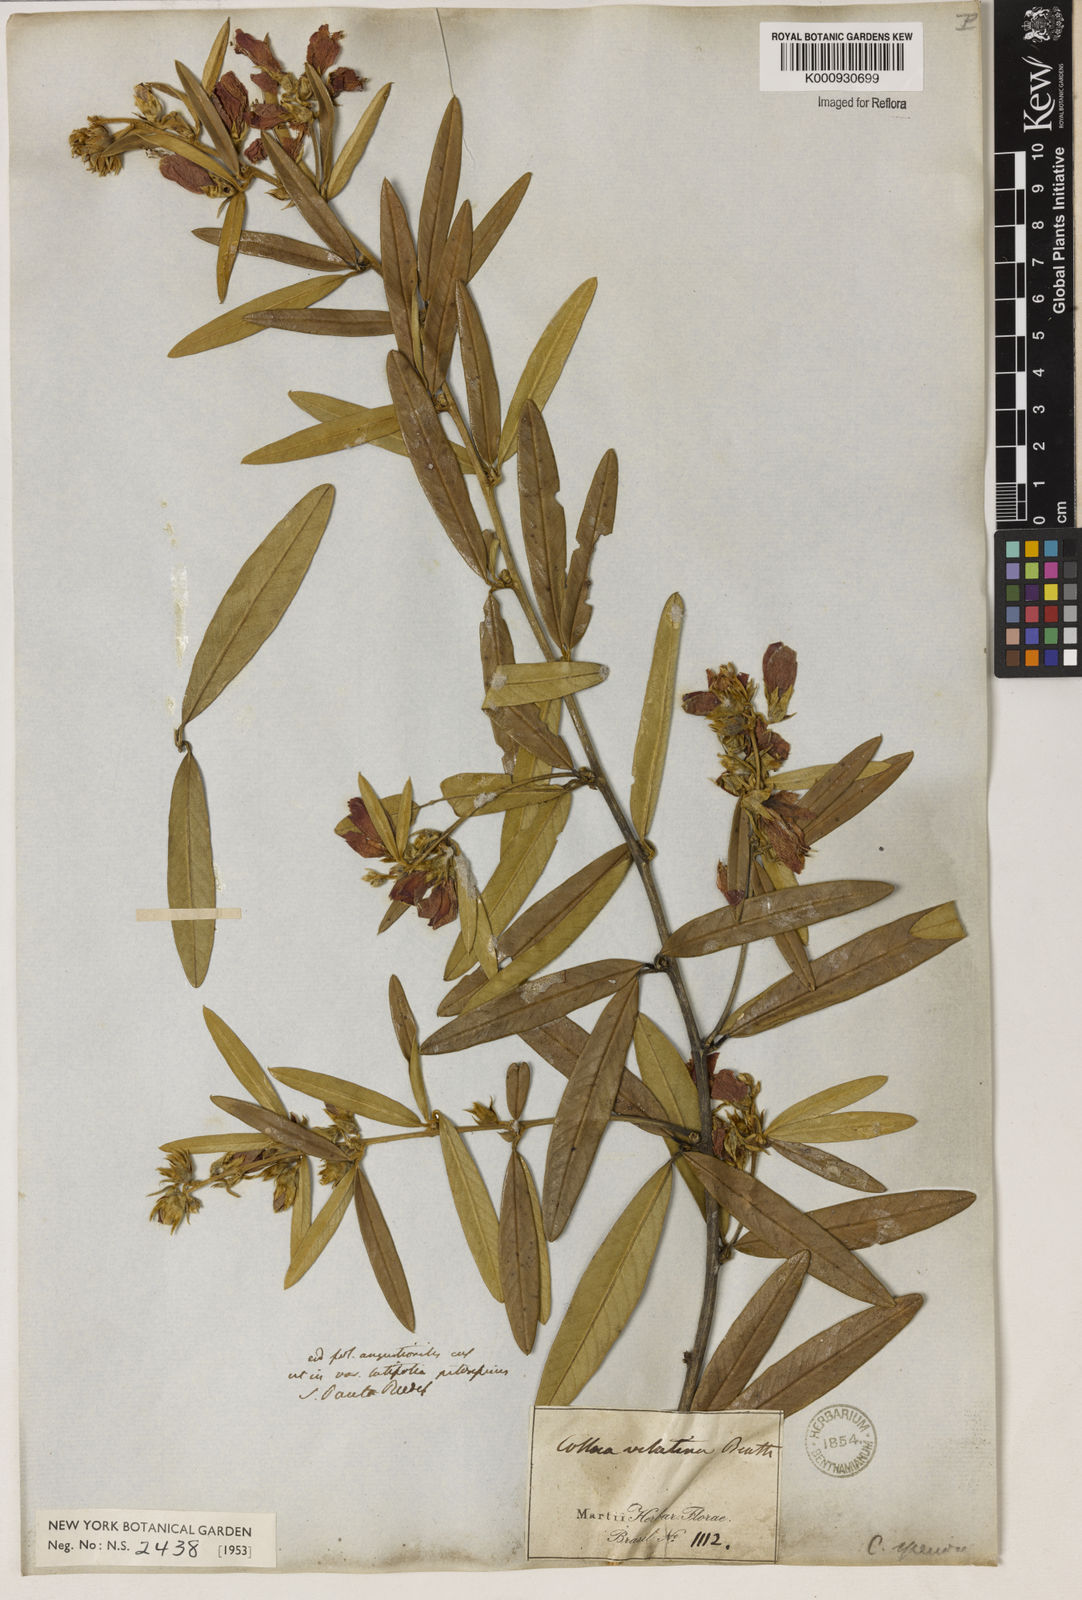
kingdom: Plantae
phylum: Tracheophyta
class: Magnoliopsida
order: Lamiales
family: Lamiaceae
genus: Coleus
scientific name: Coleus barbatus
